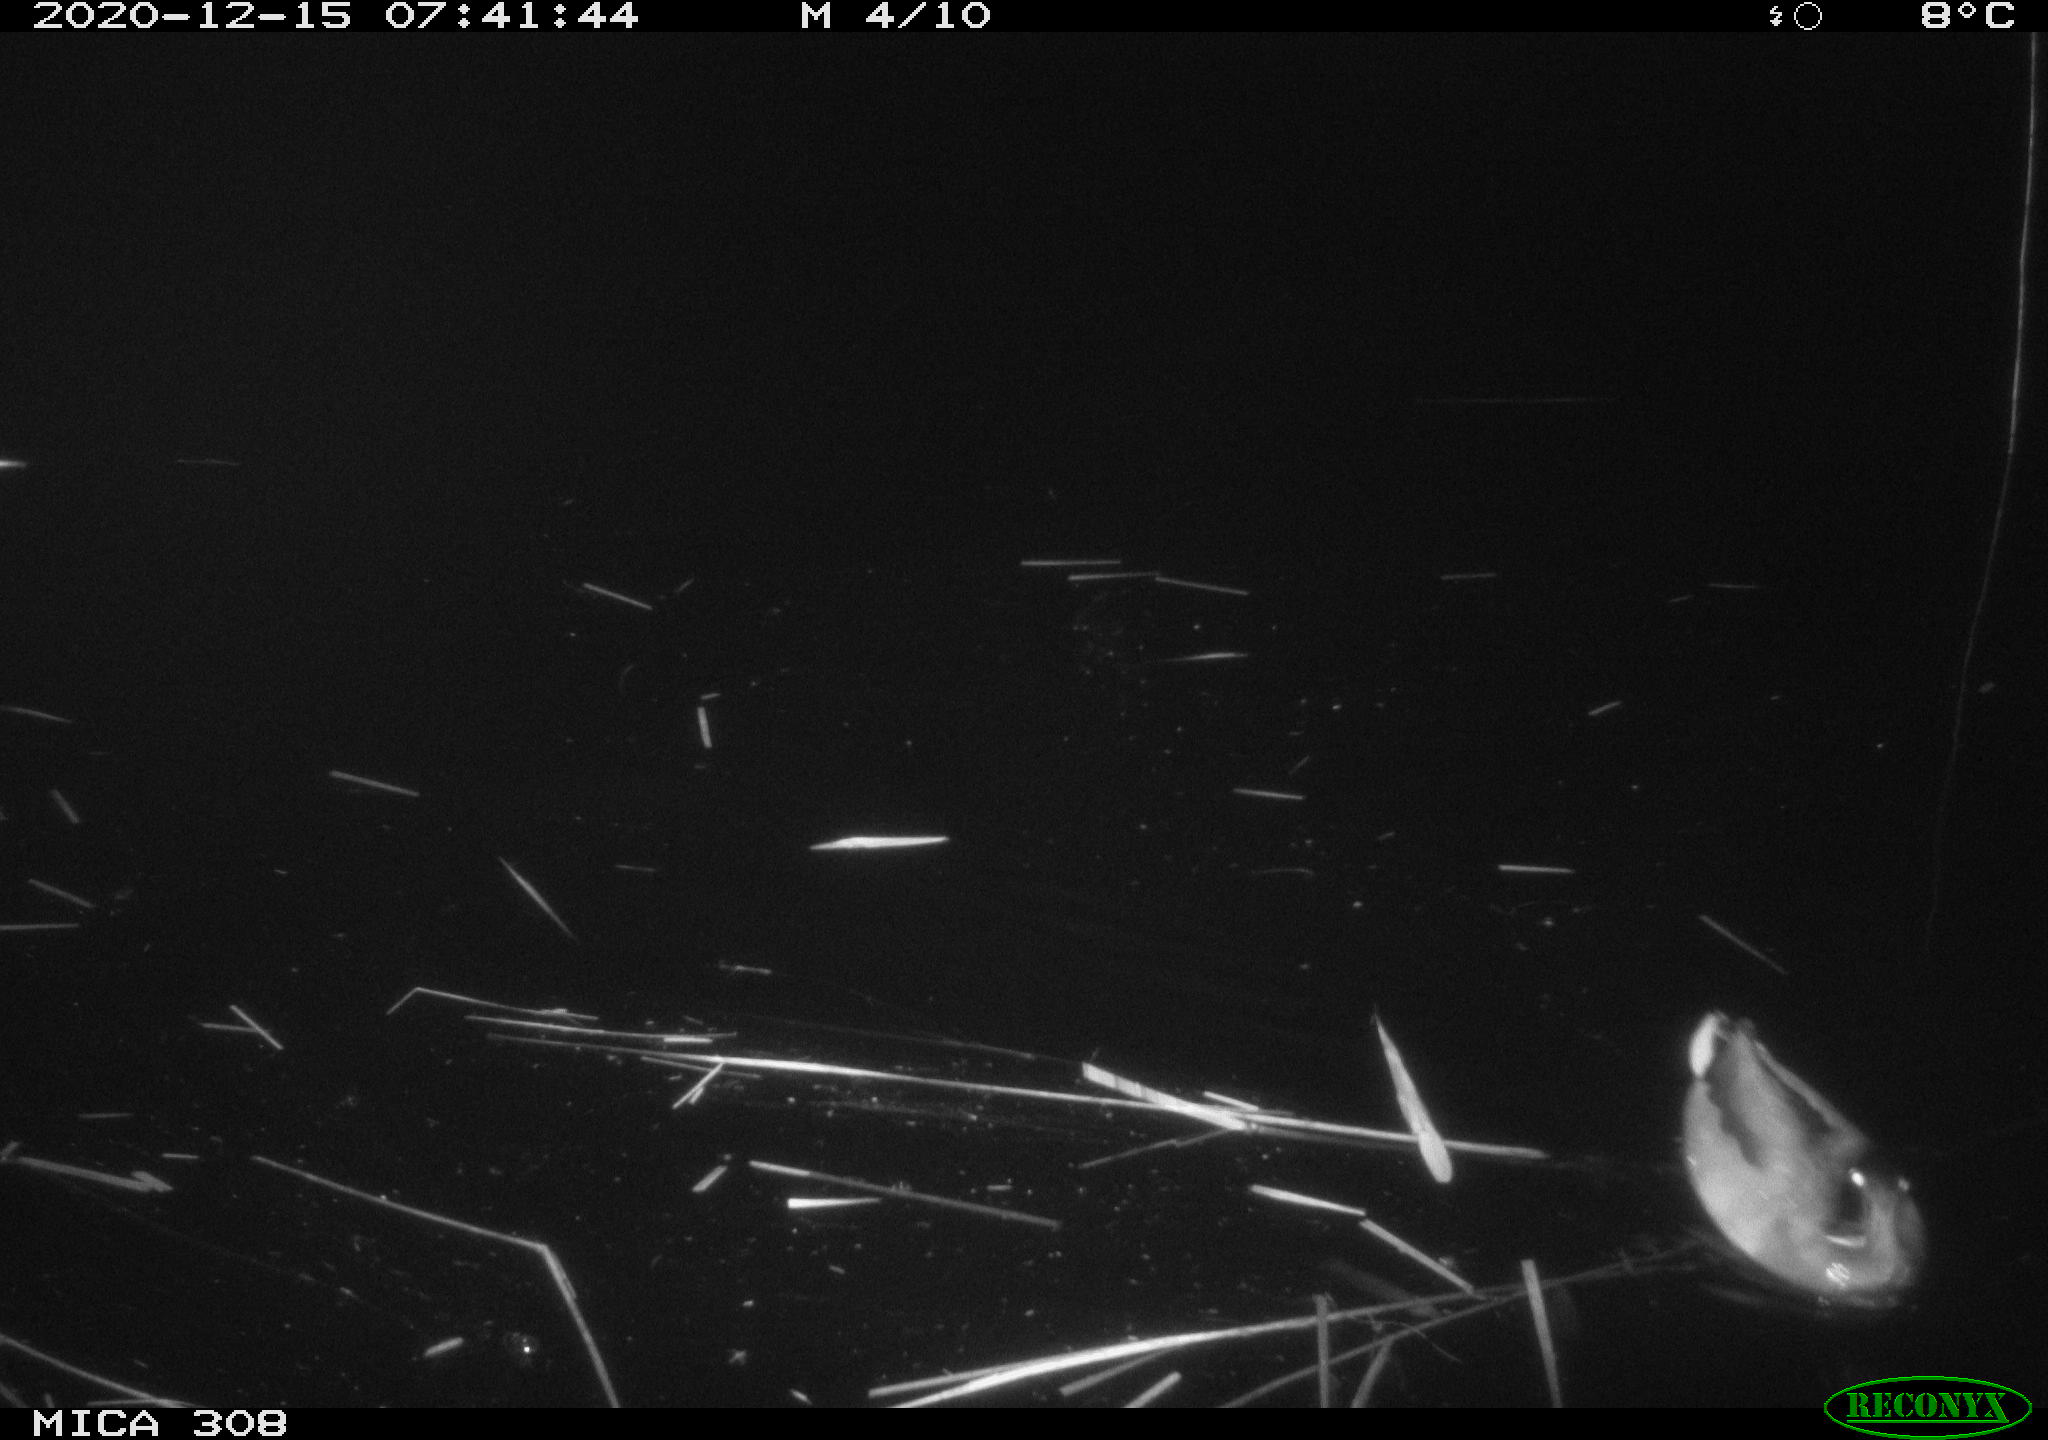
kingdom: Animalia
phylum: Chordata
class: Aves
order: Anseriformes
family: Anatidae
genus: Anas
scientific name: Anas platyrhynchos
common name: Mallard
